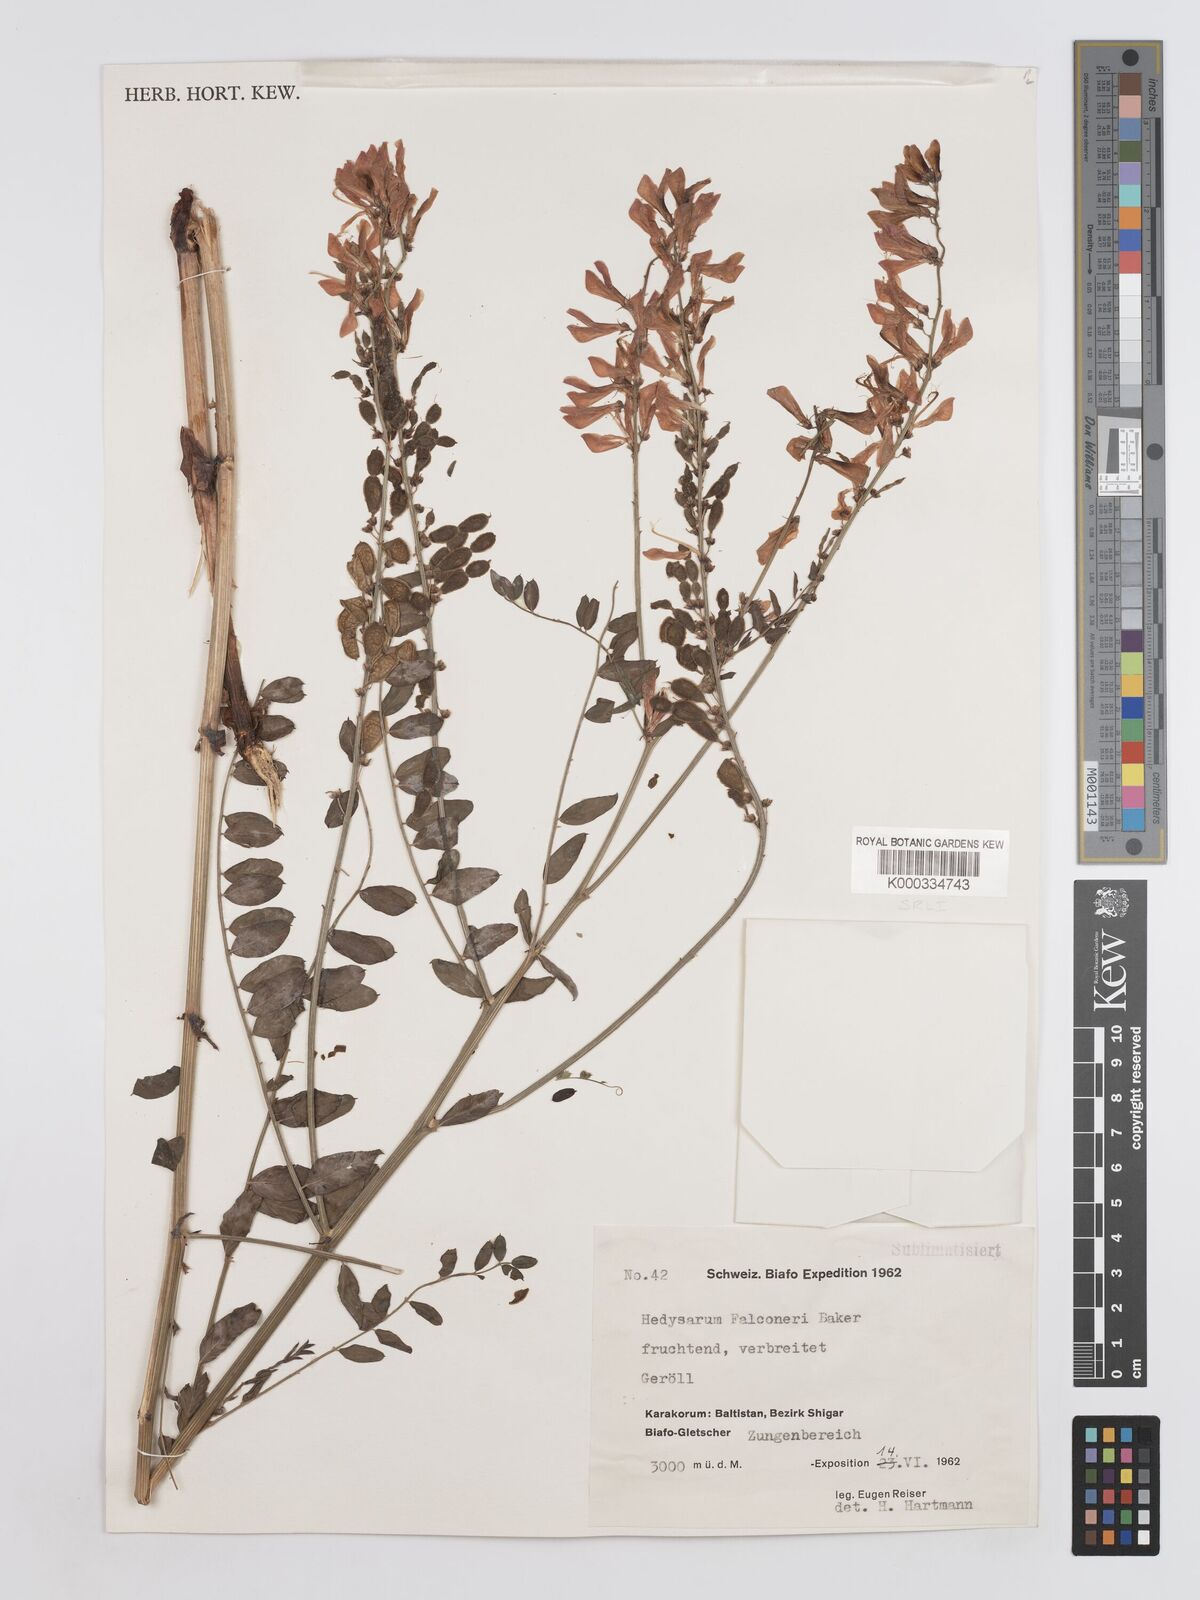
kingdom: Plantae
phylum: Tracheophyta
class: Magnoliopsida
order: Fabales
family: Fabaceae
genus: Hedysarum
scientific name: Hedysarum falconeri
